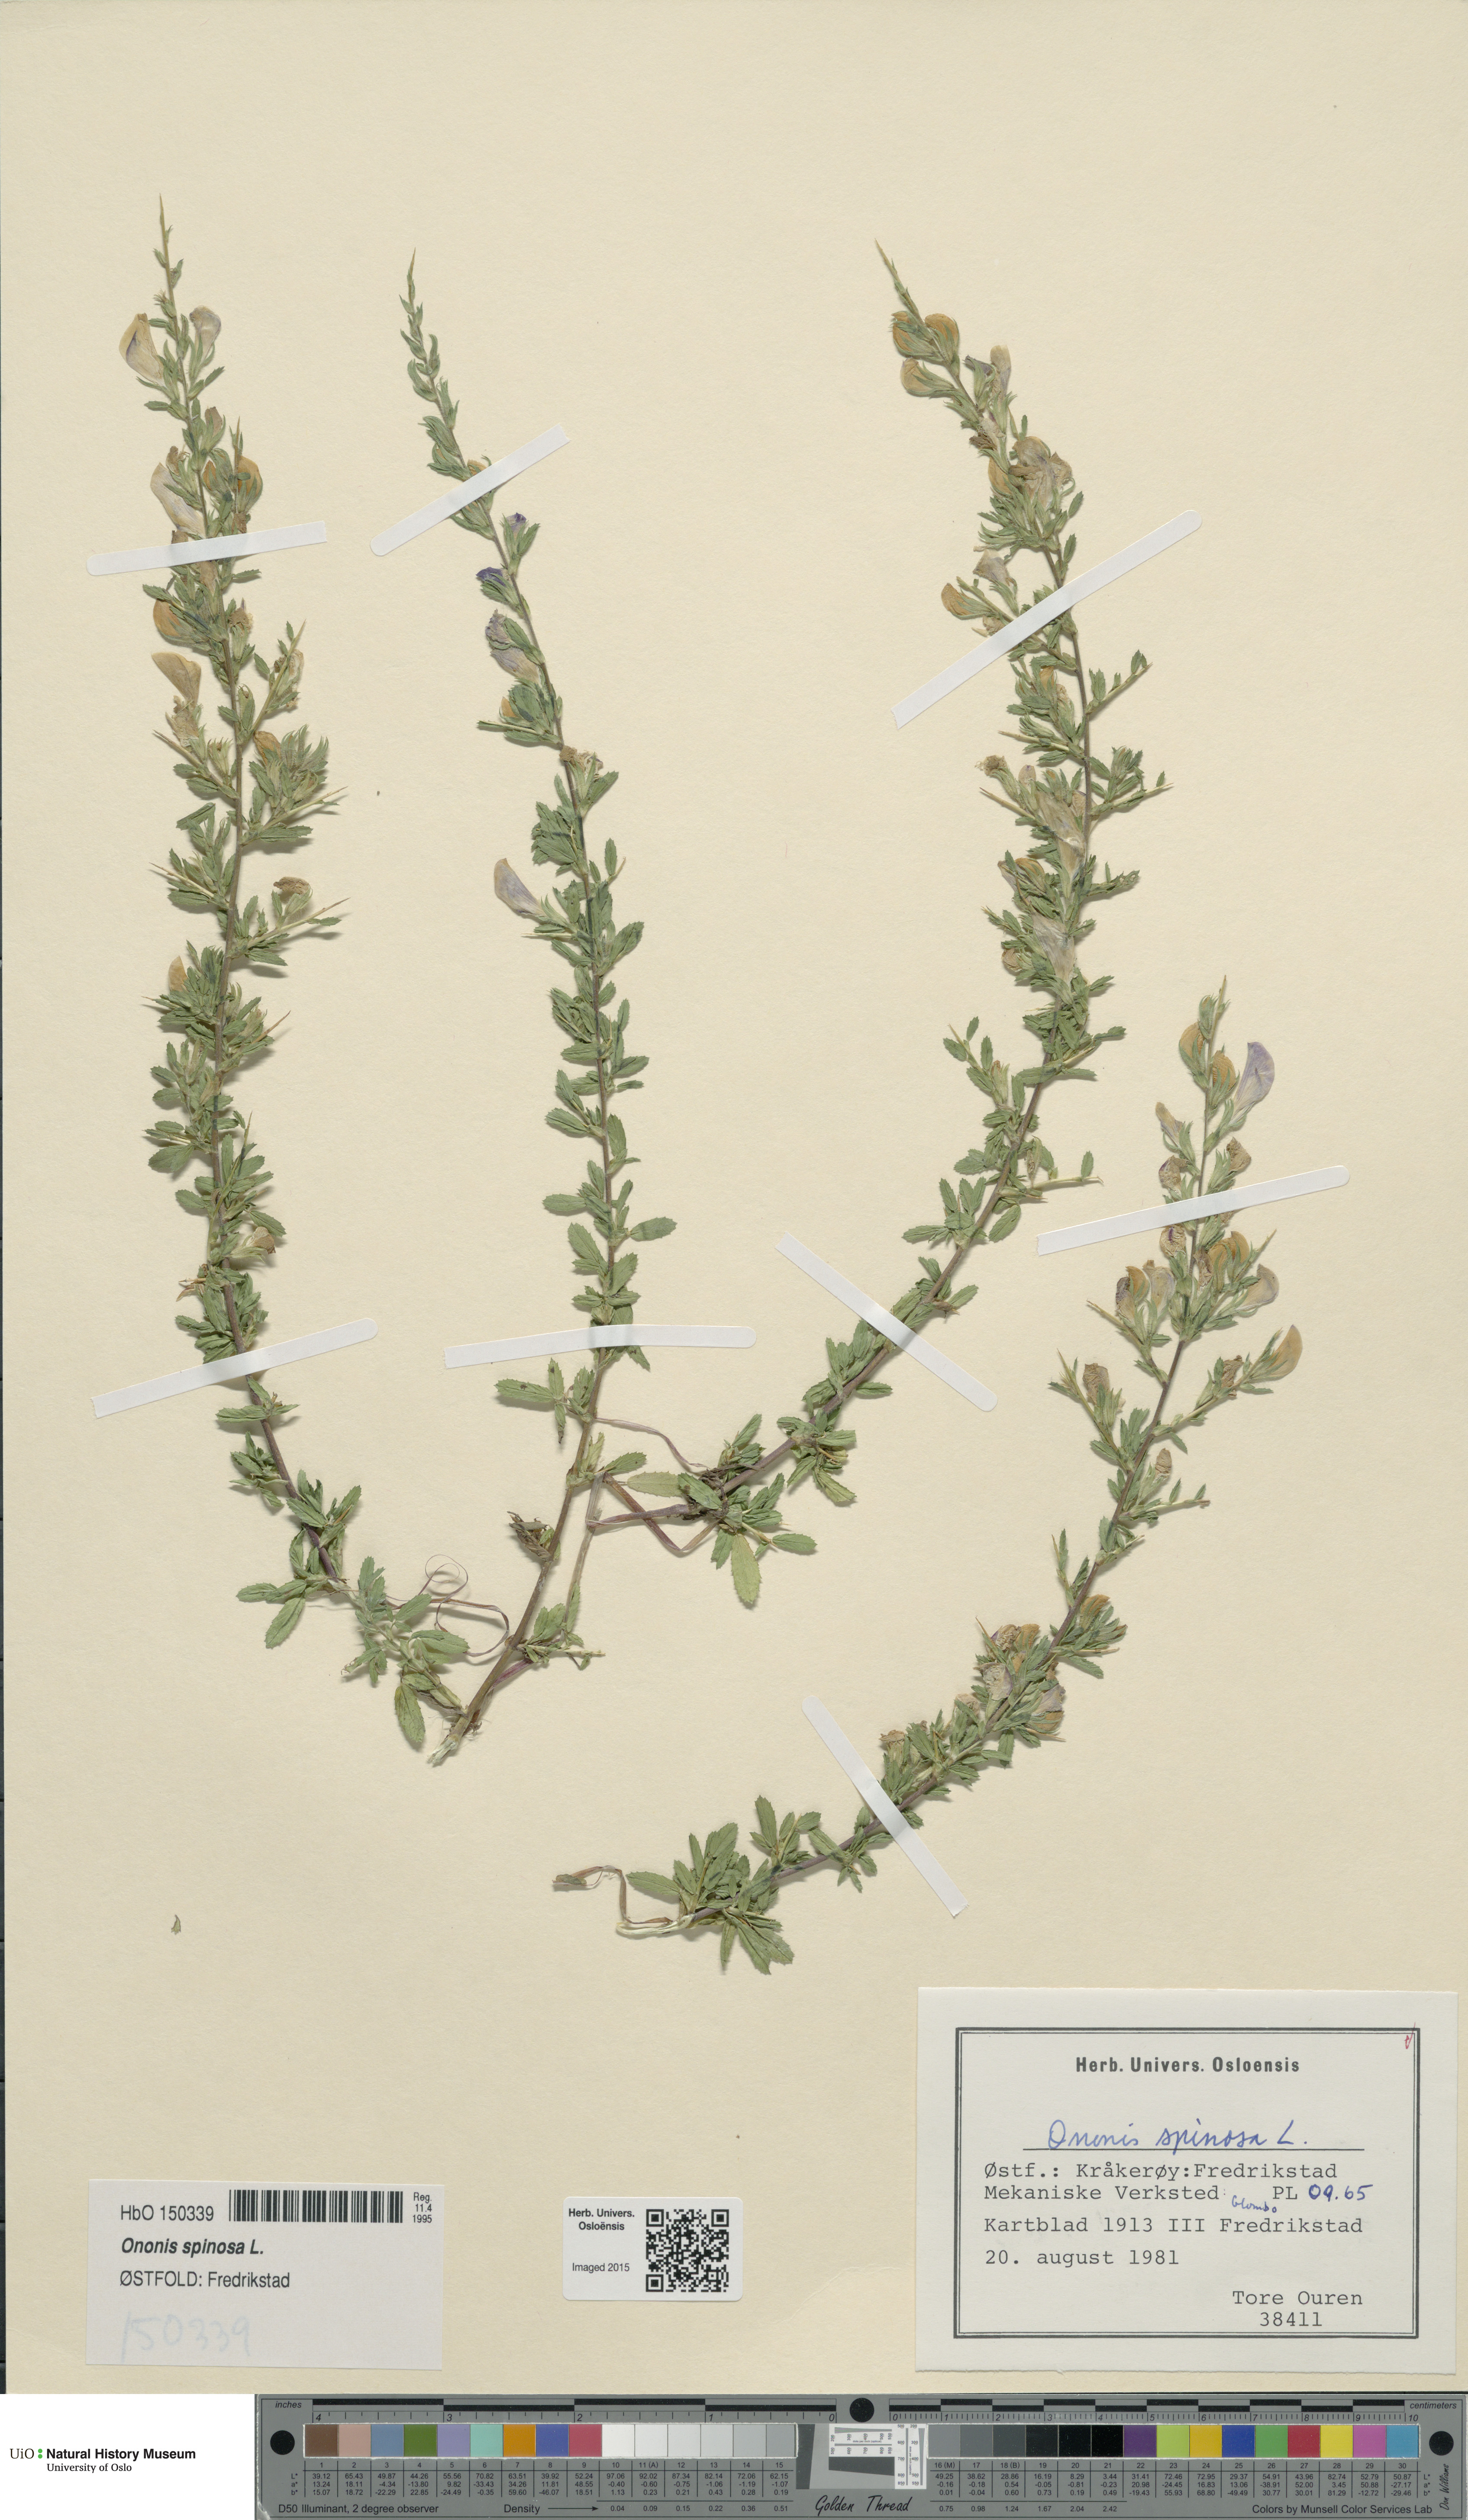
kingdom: Plantae
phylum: Tracheophyta
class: Magnoliopsida
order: Fabales
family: Fabaceae
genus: Ononis
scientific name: Ononis spinosa
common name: Spiny restharrow
